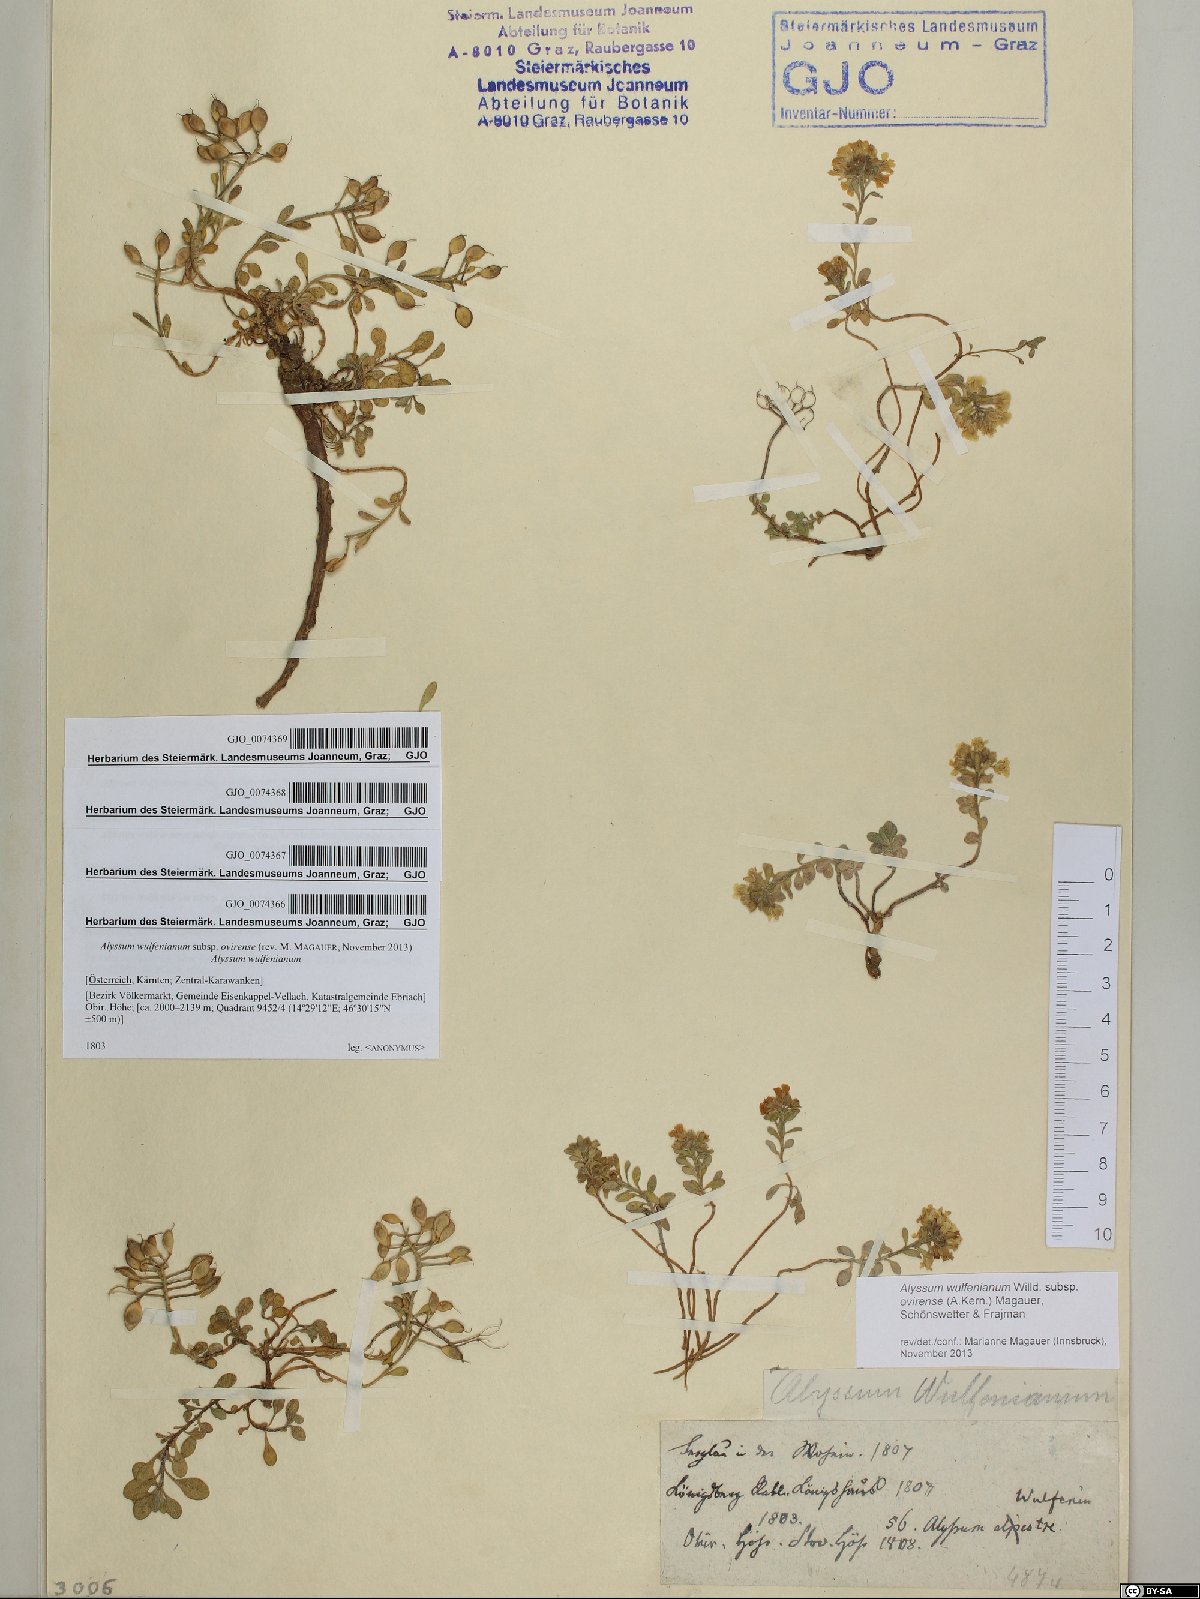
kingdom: Plantae
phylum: Tracheophyta
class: Magnoliopsida
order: Brassicales
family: Brassicaceae
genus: Alyssum
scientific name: Alyssum wulfenianum
